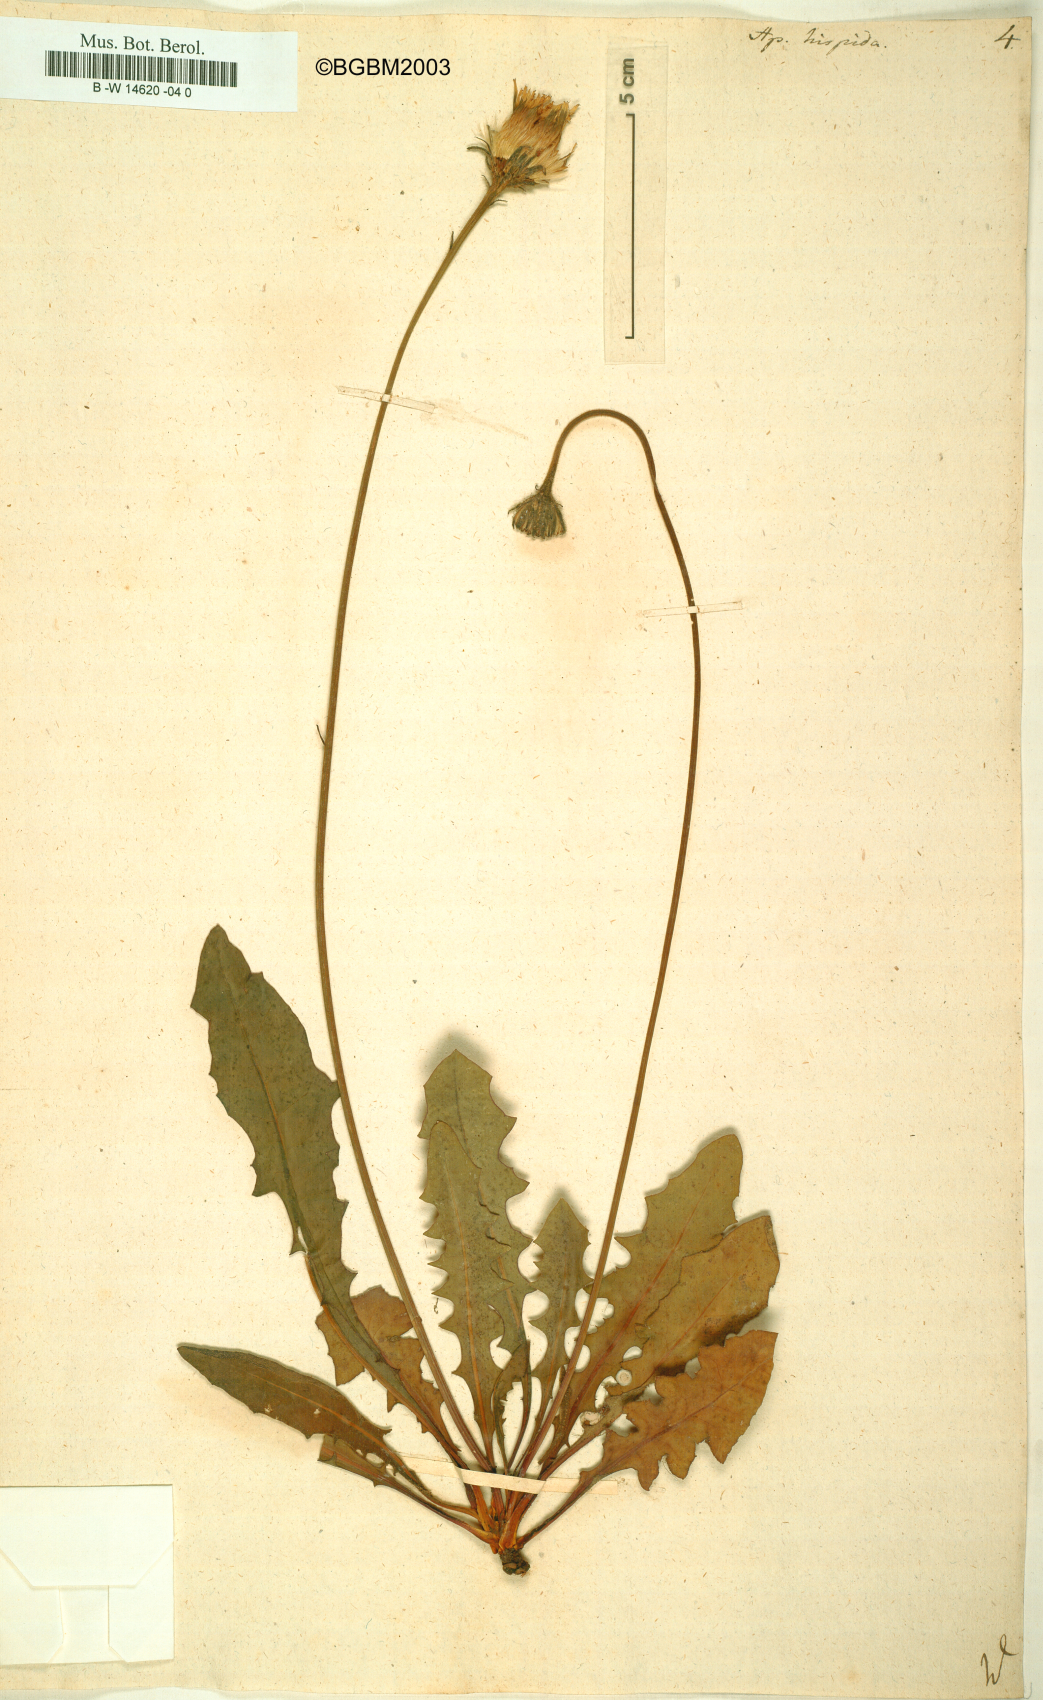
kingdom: Plantae
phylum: Tracheophyta
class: Magnoliopsida
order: Asterales
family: Asteraceae
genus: Leontodon
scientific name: Leontodon
